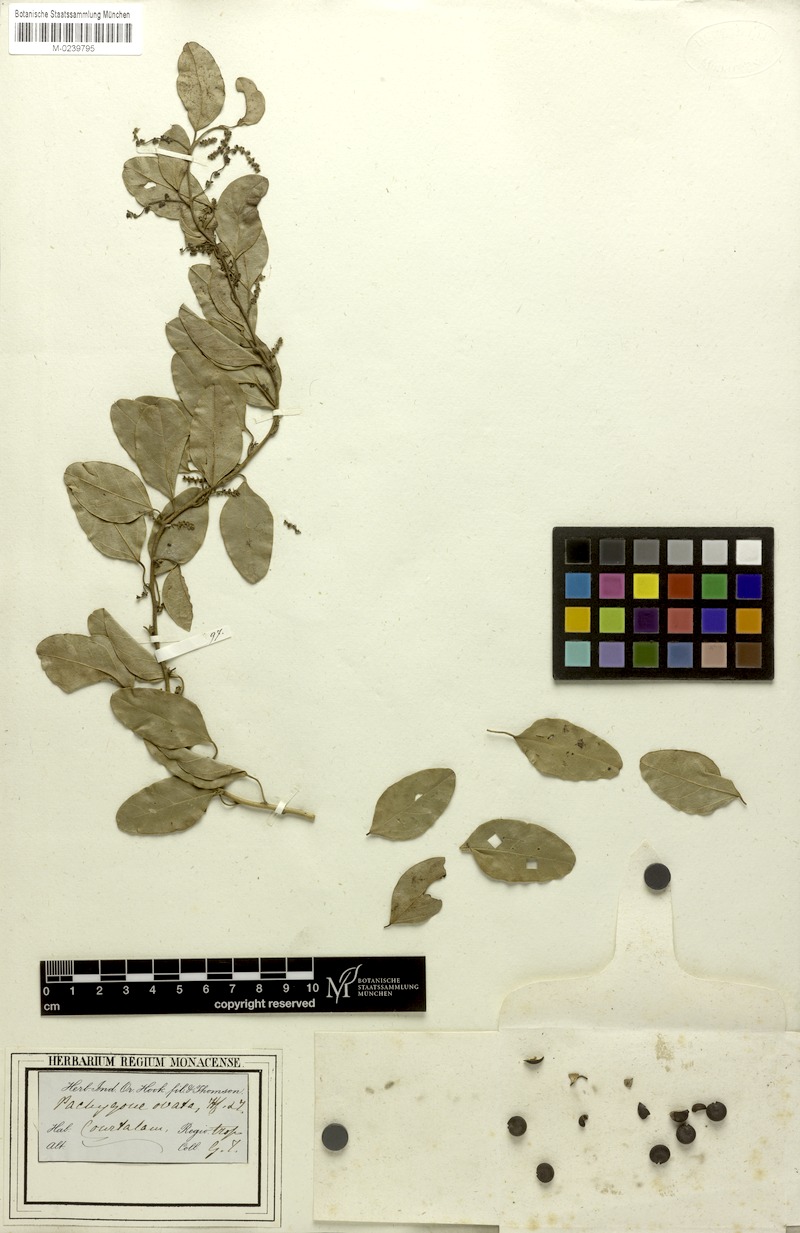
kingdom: Plantae
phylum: Tracheophyta
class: Magnoliopsida
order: Ranunculales
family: Menispermaceae
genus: Pachygone
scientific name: Pachygone ovata
